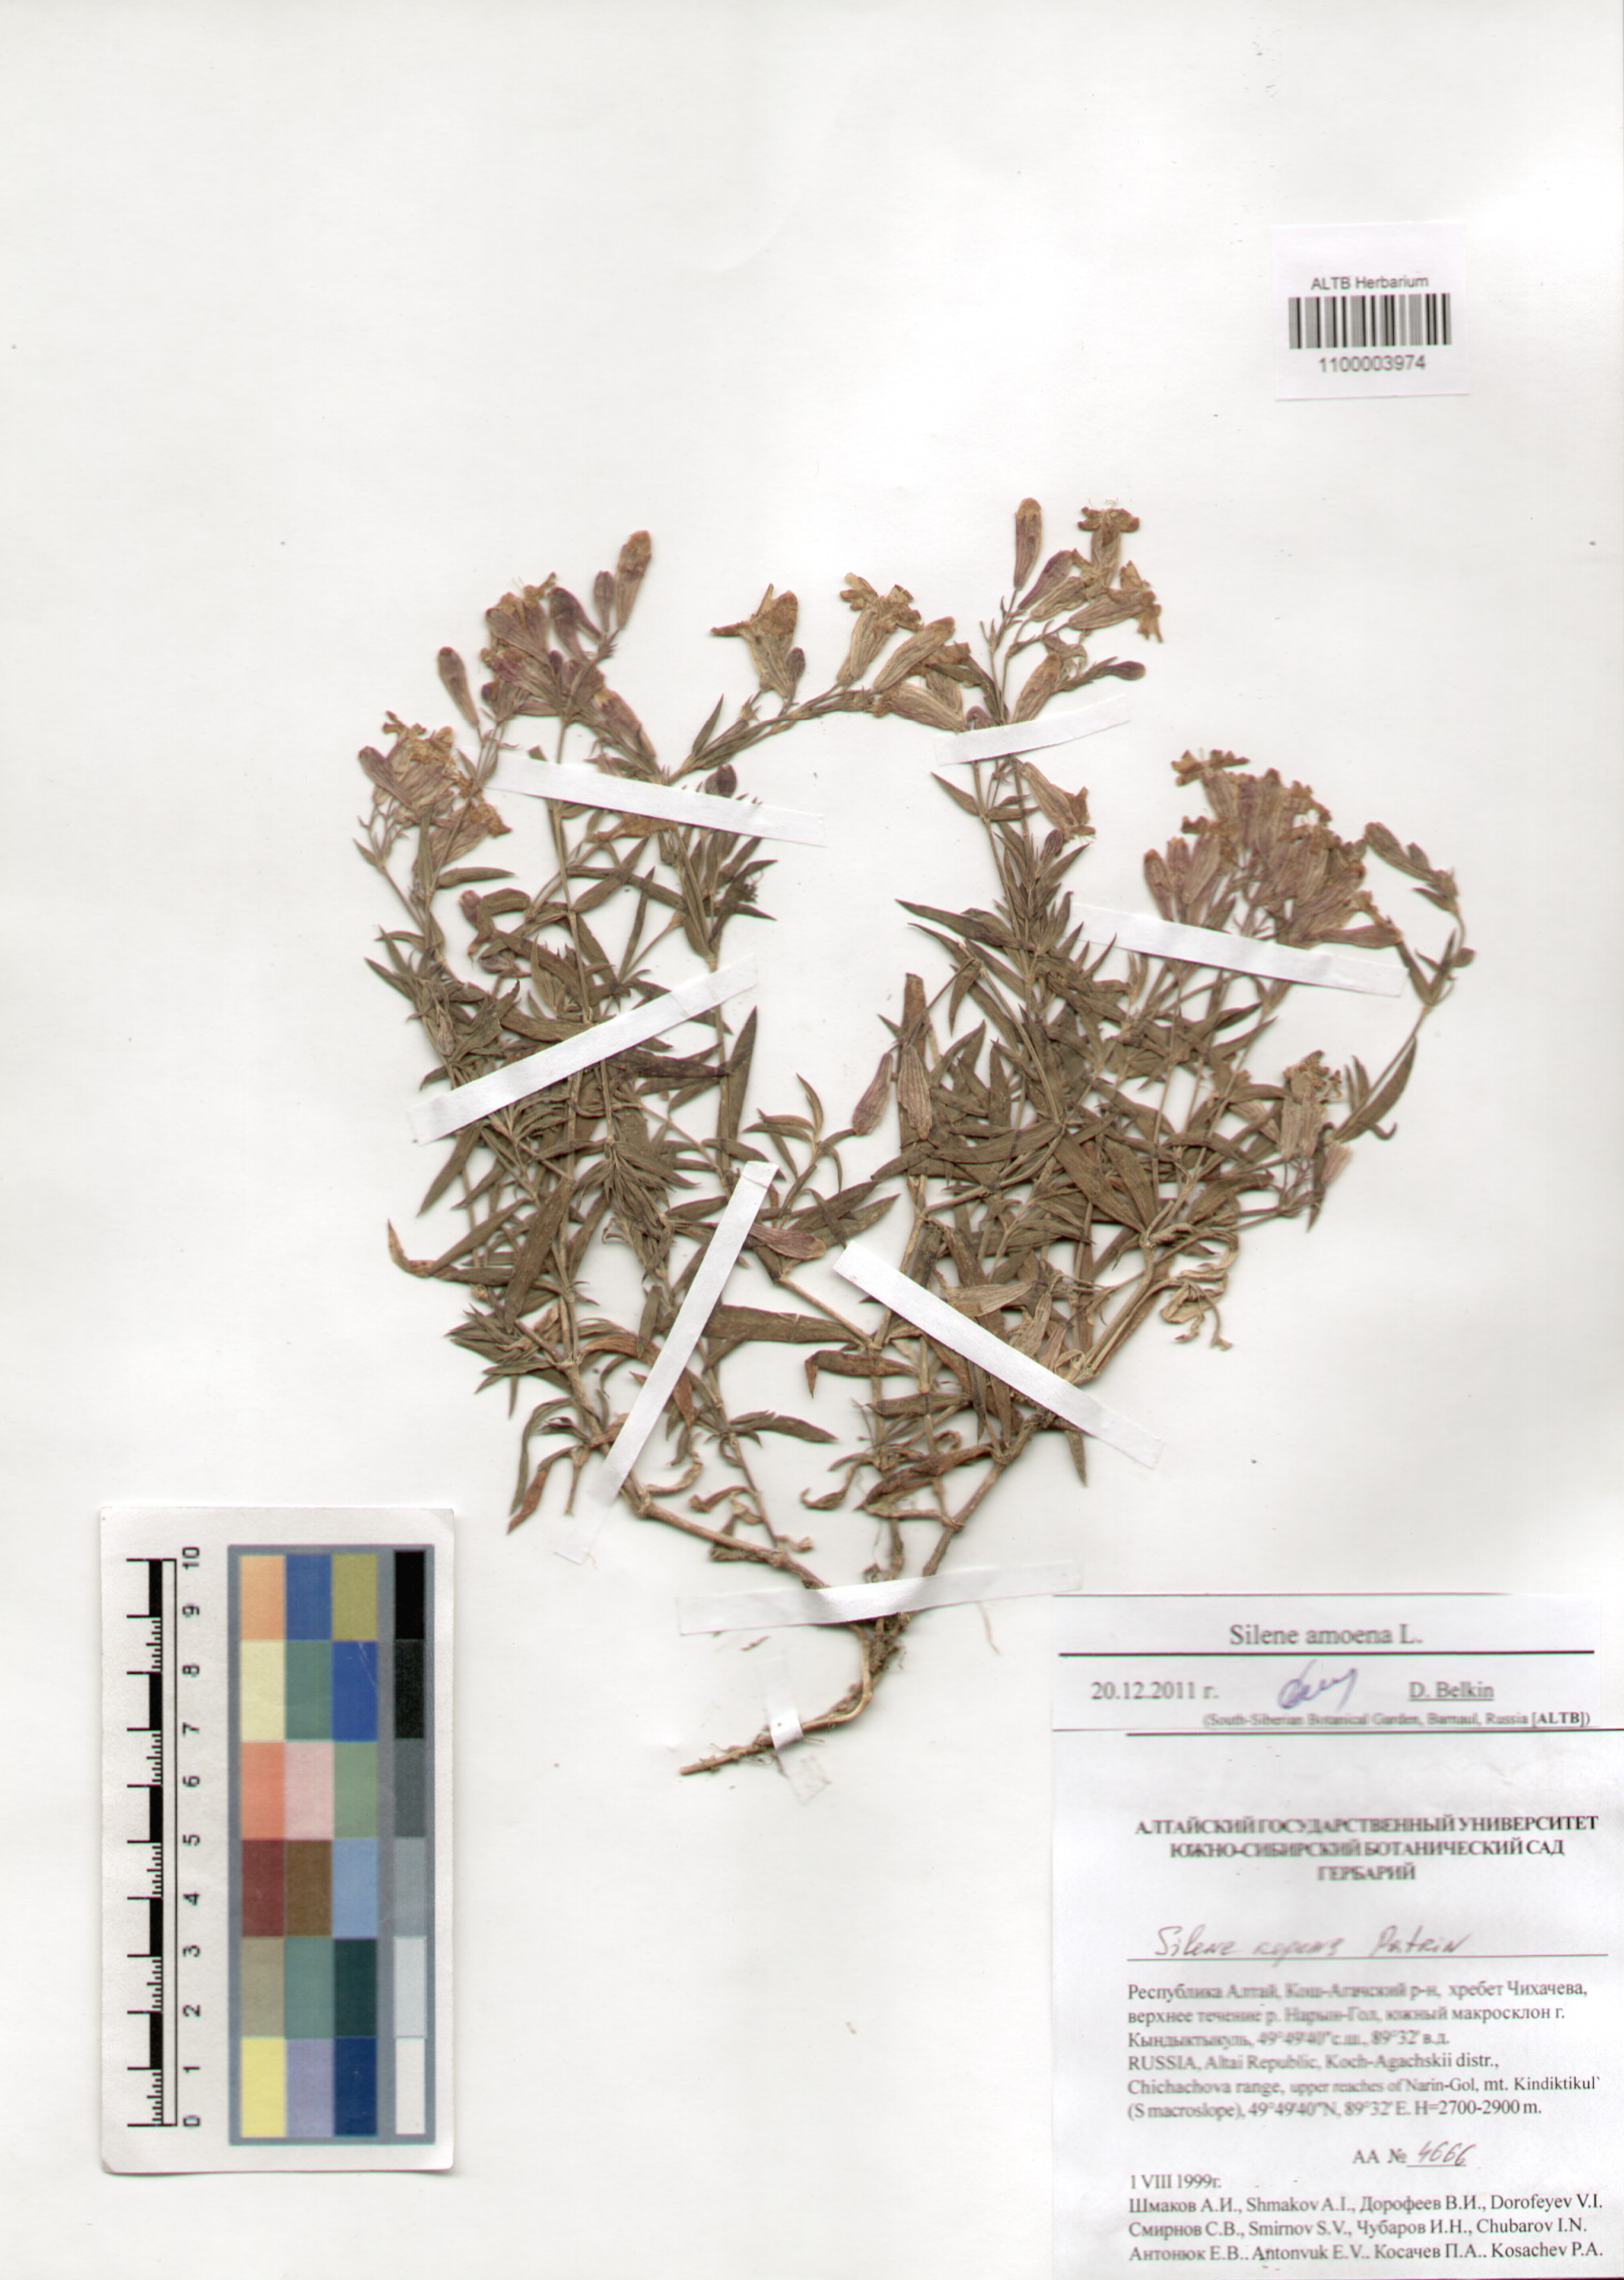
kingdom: Plantae
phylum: Tracheophyta
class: Magnoliopsida
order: Caryophyllales
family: Caryophyllaceae
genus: Silene
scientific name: Silene amoena
